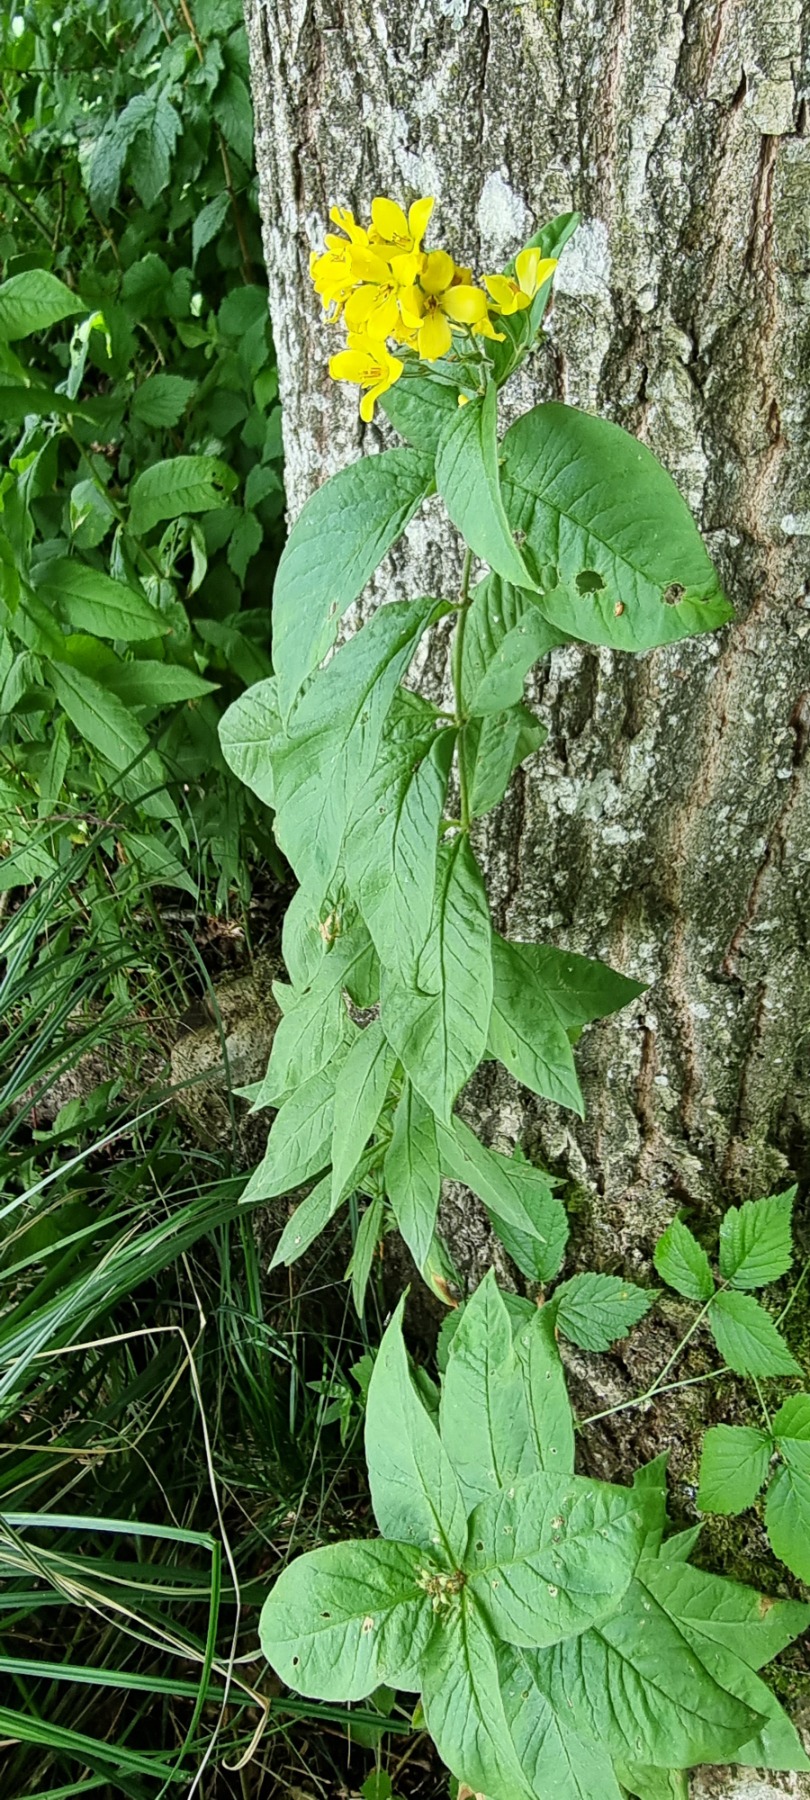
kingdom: Plantae
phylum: Tracheophyta
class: Magnoliopsida
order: Ericales
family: Primulaceae
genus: Lysimachia
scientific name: Lysimachia vulgaris
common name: Almindelig fredløs
